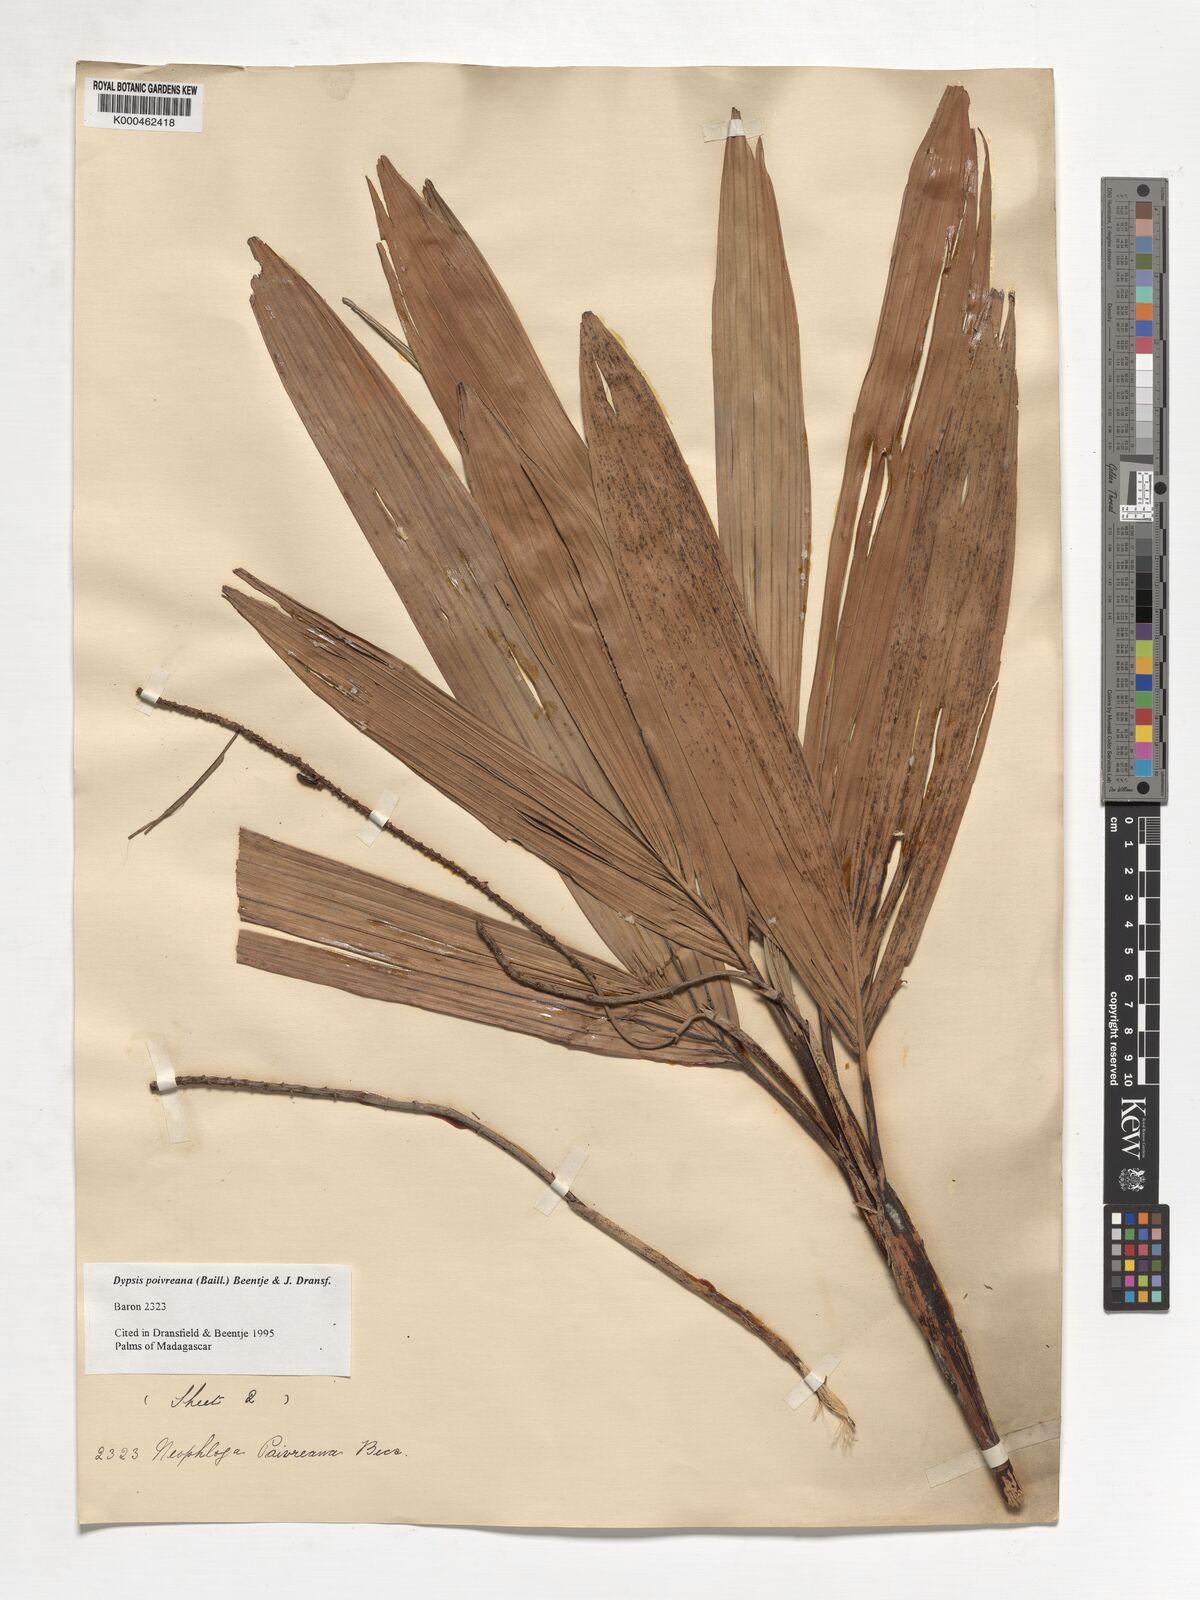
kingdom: Plantae
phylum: Tracheophyta
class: Liliopsida
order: Arecales
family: Arecaceae
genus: Dypsis
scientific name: Dypsis poivreana
